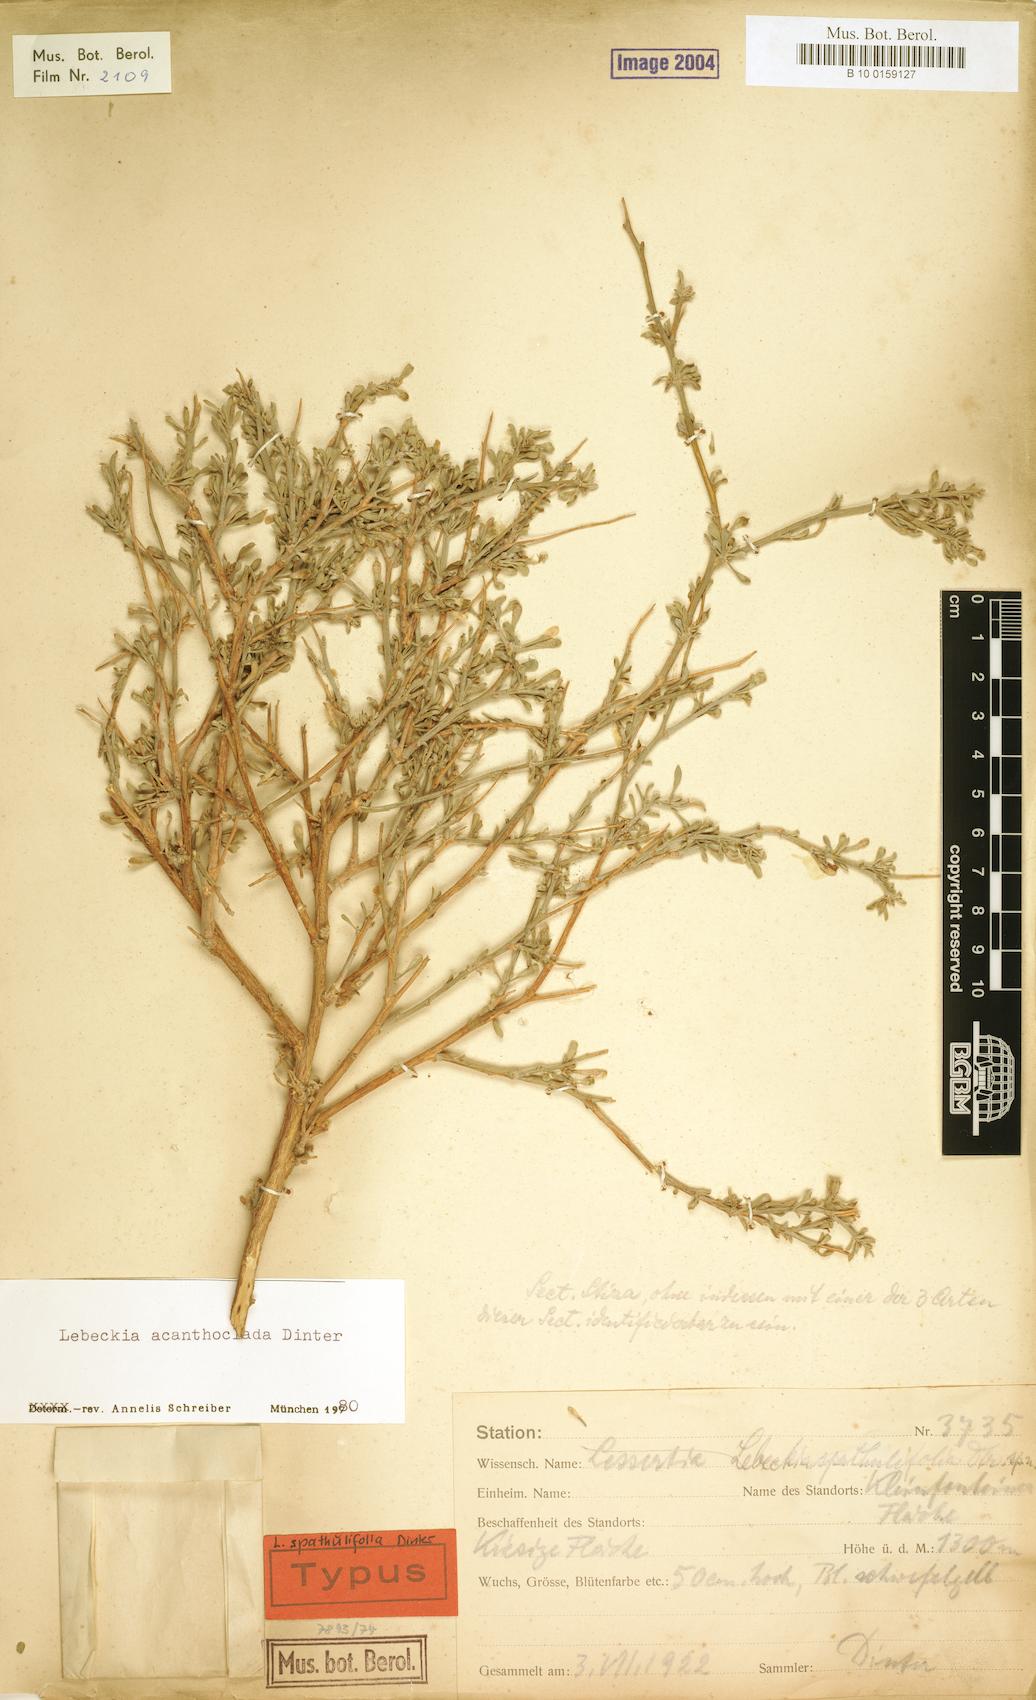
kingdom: Plantae
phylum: Tracheophyta
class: Magnoliopsida
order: Fabales
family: Fabaceae
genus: Calobota
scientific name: Calobota acanthoclada
